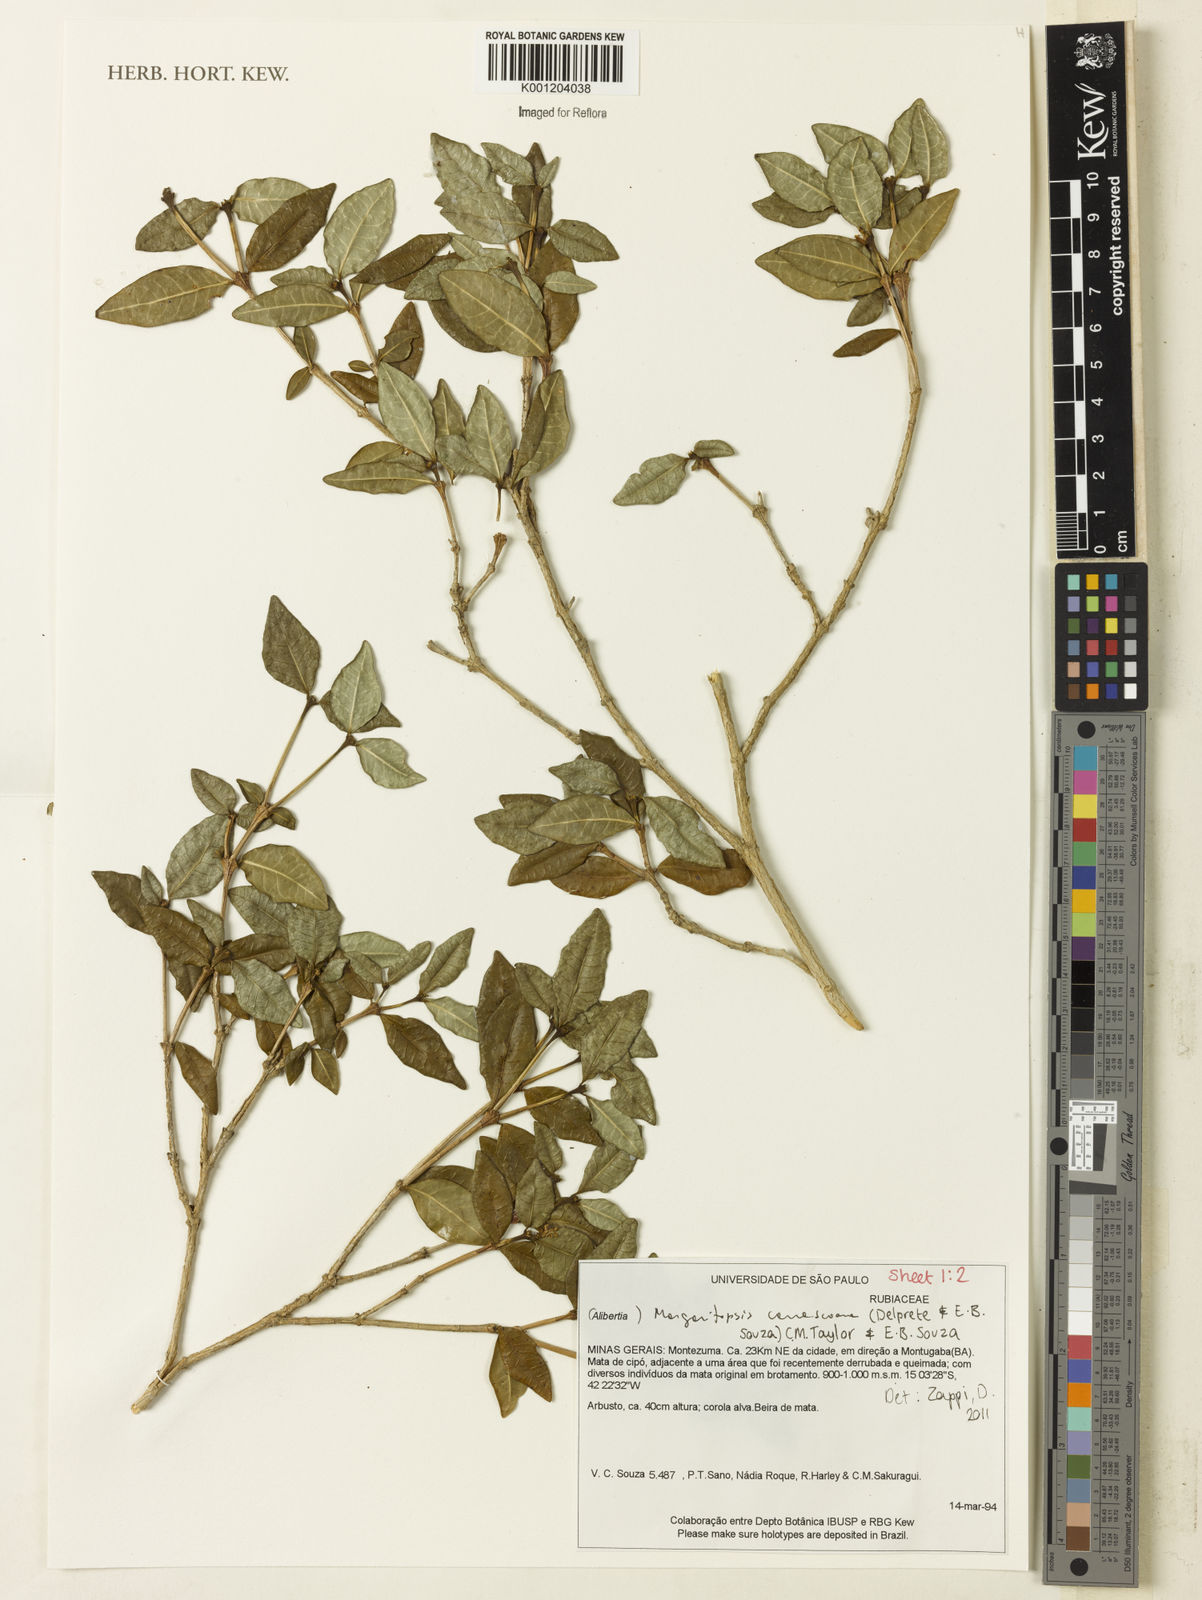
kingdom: Plantae
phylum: Tracheophyta
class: Magnoliopsida
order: Gentianales
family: Rubiaceae
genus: Eumachia
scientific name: Eumachia depauperata
